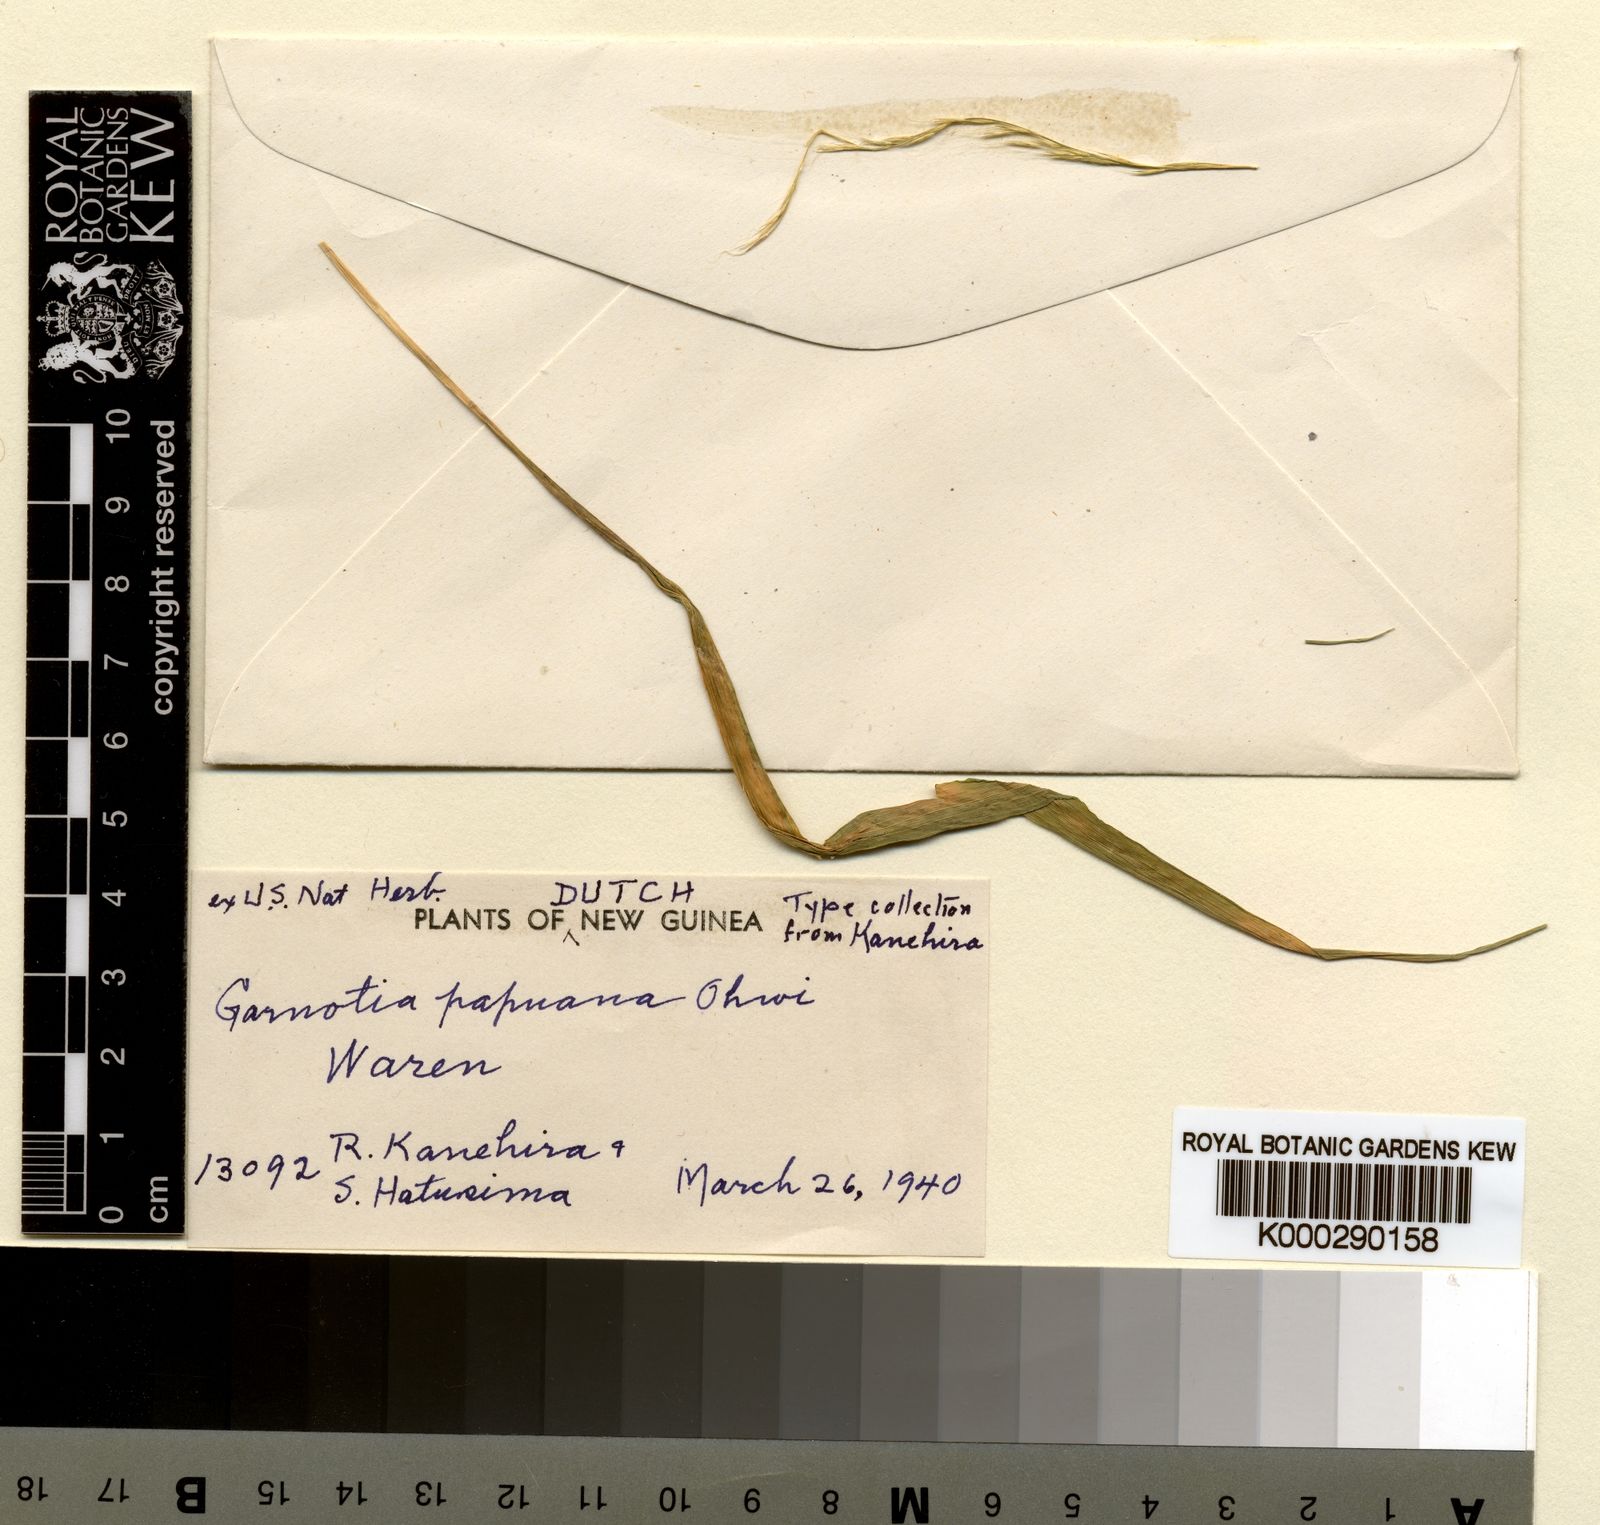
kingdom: Plantae
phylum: Tracheophyta
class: Liliopsida
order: Poales
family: Poaceae
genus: Garnotia
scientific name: Garnotia stricta
